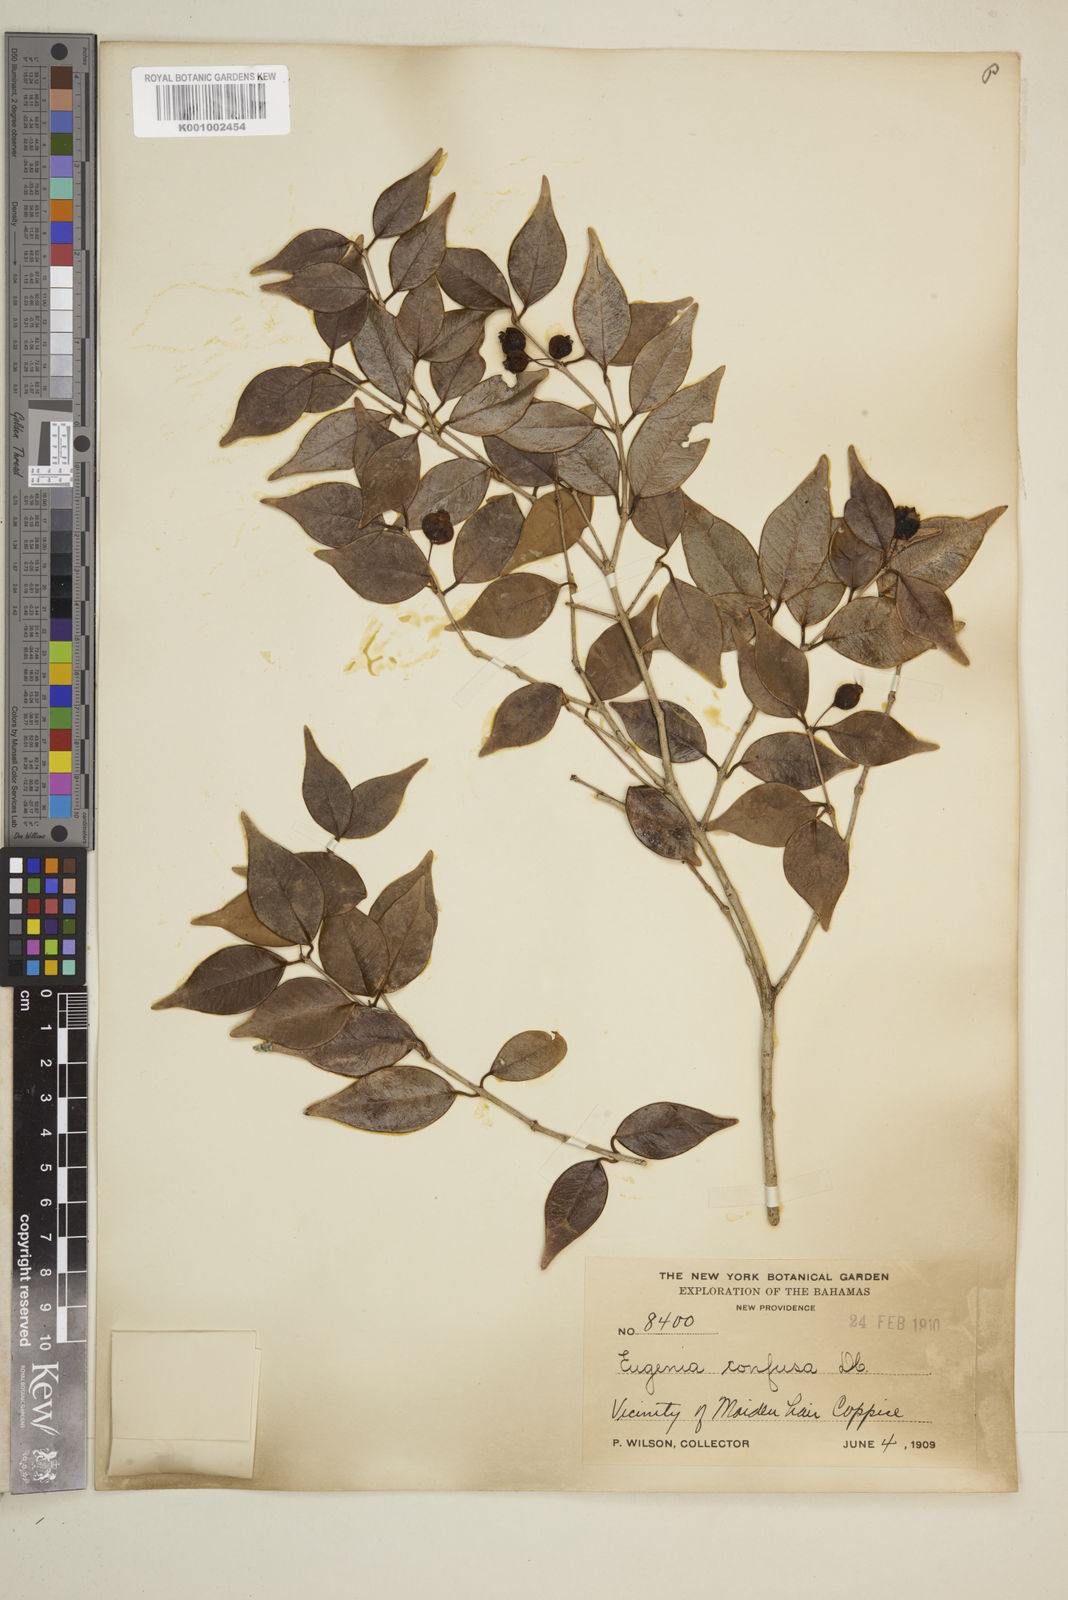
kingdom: Plantae
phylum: Tracheophyta
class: Magnoliopsida
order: Myrtales
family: Myrtaceae
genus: Eugenia
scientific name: Eugenia confusa
